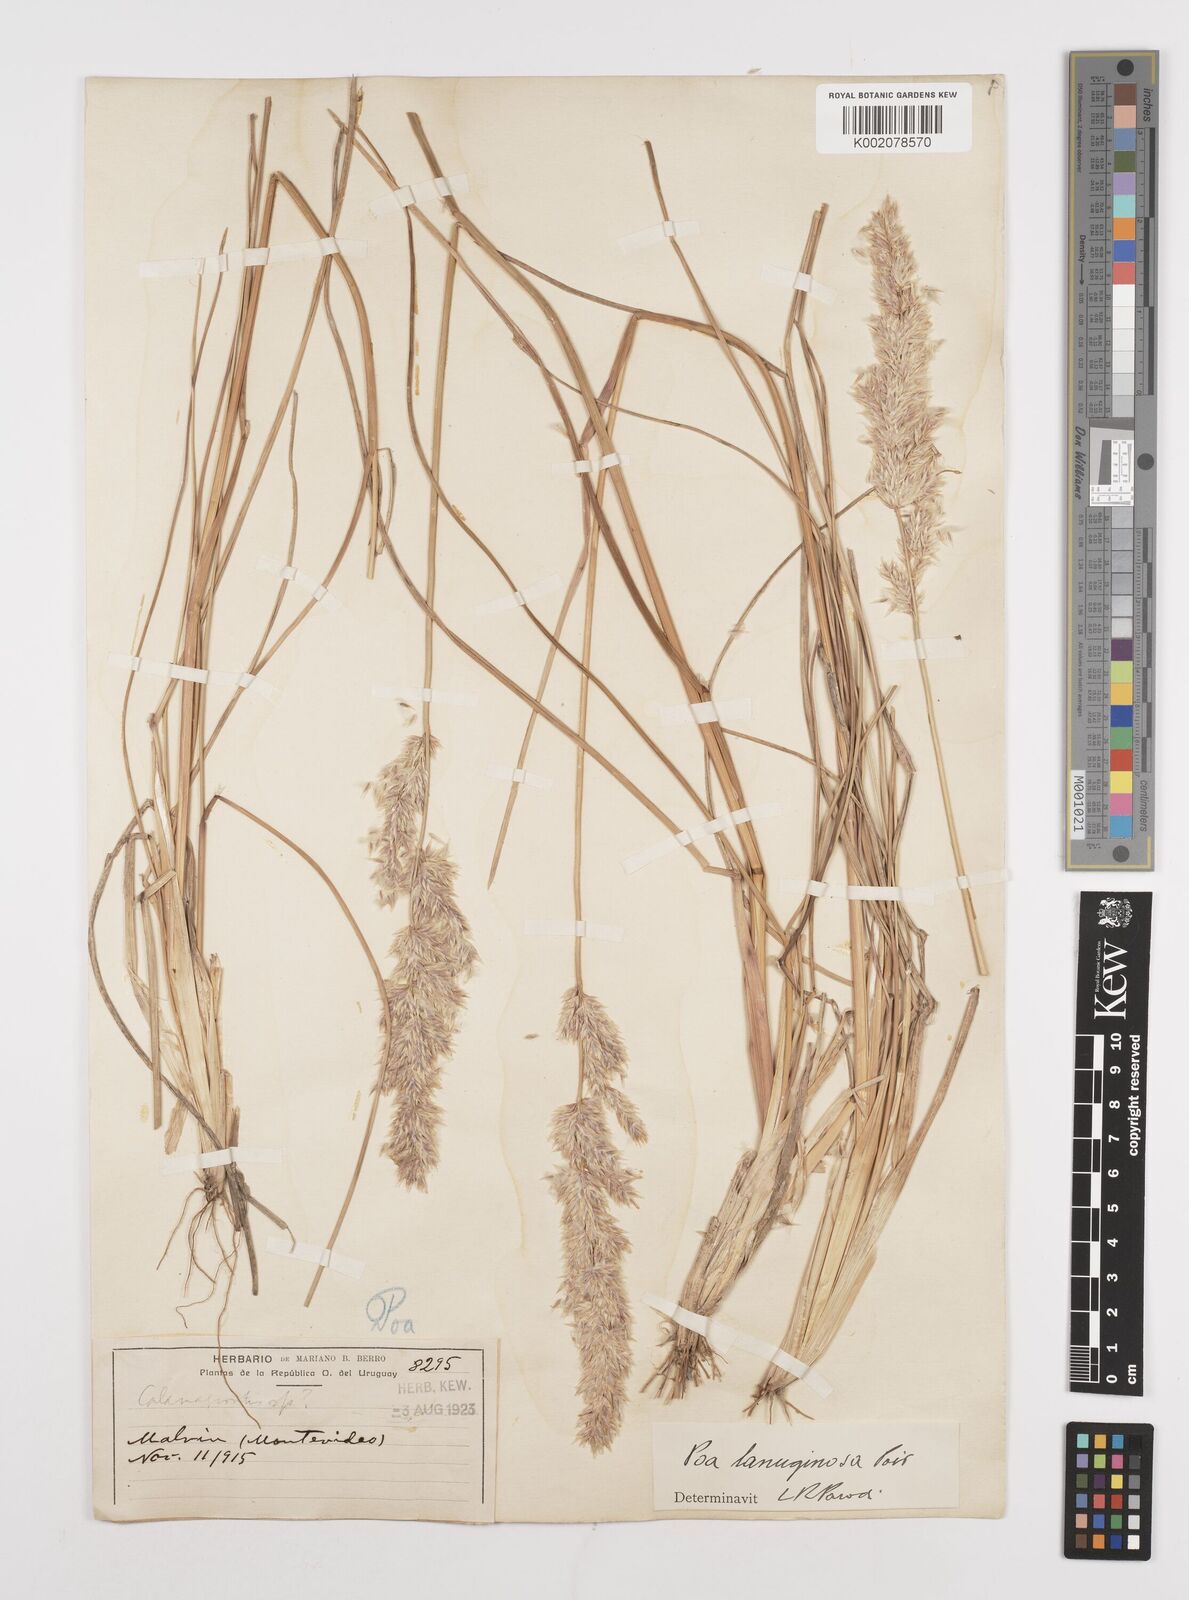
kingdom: Plantae
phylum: Tracheophyta
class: Liliopsida
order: Poales
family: Poaceae
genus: Poa
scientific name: Poa lanuginosa
